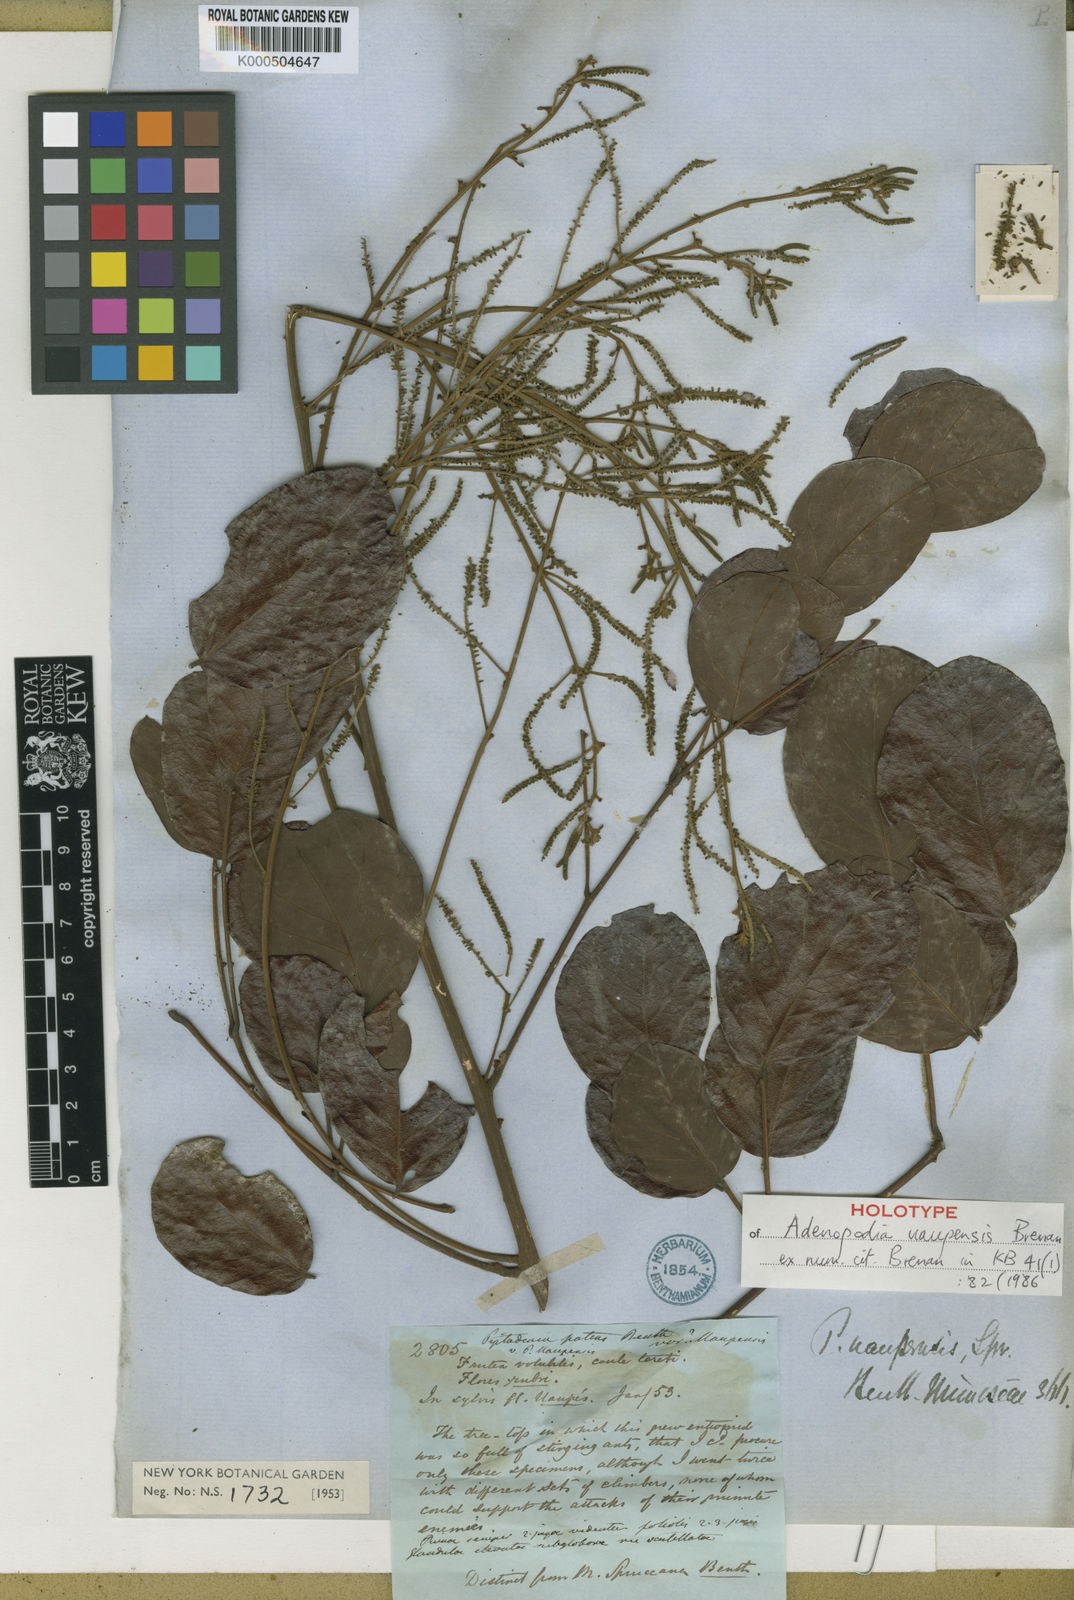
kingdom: Plantae
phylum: Tracheophyta
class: Magnoliopsida
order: Fabales
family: Fabaceae
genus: Piptadenia
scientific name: Piptadenia uaupensis
